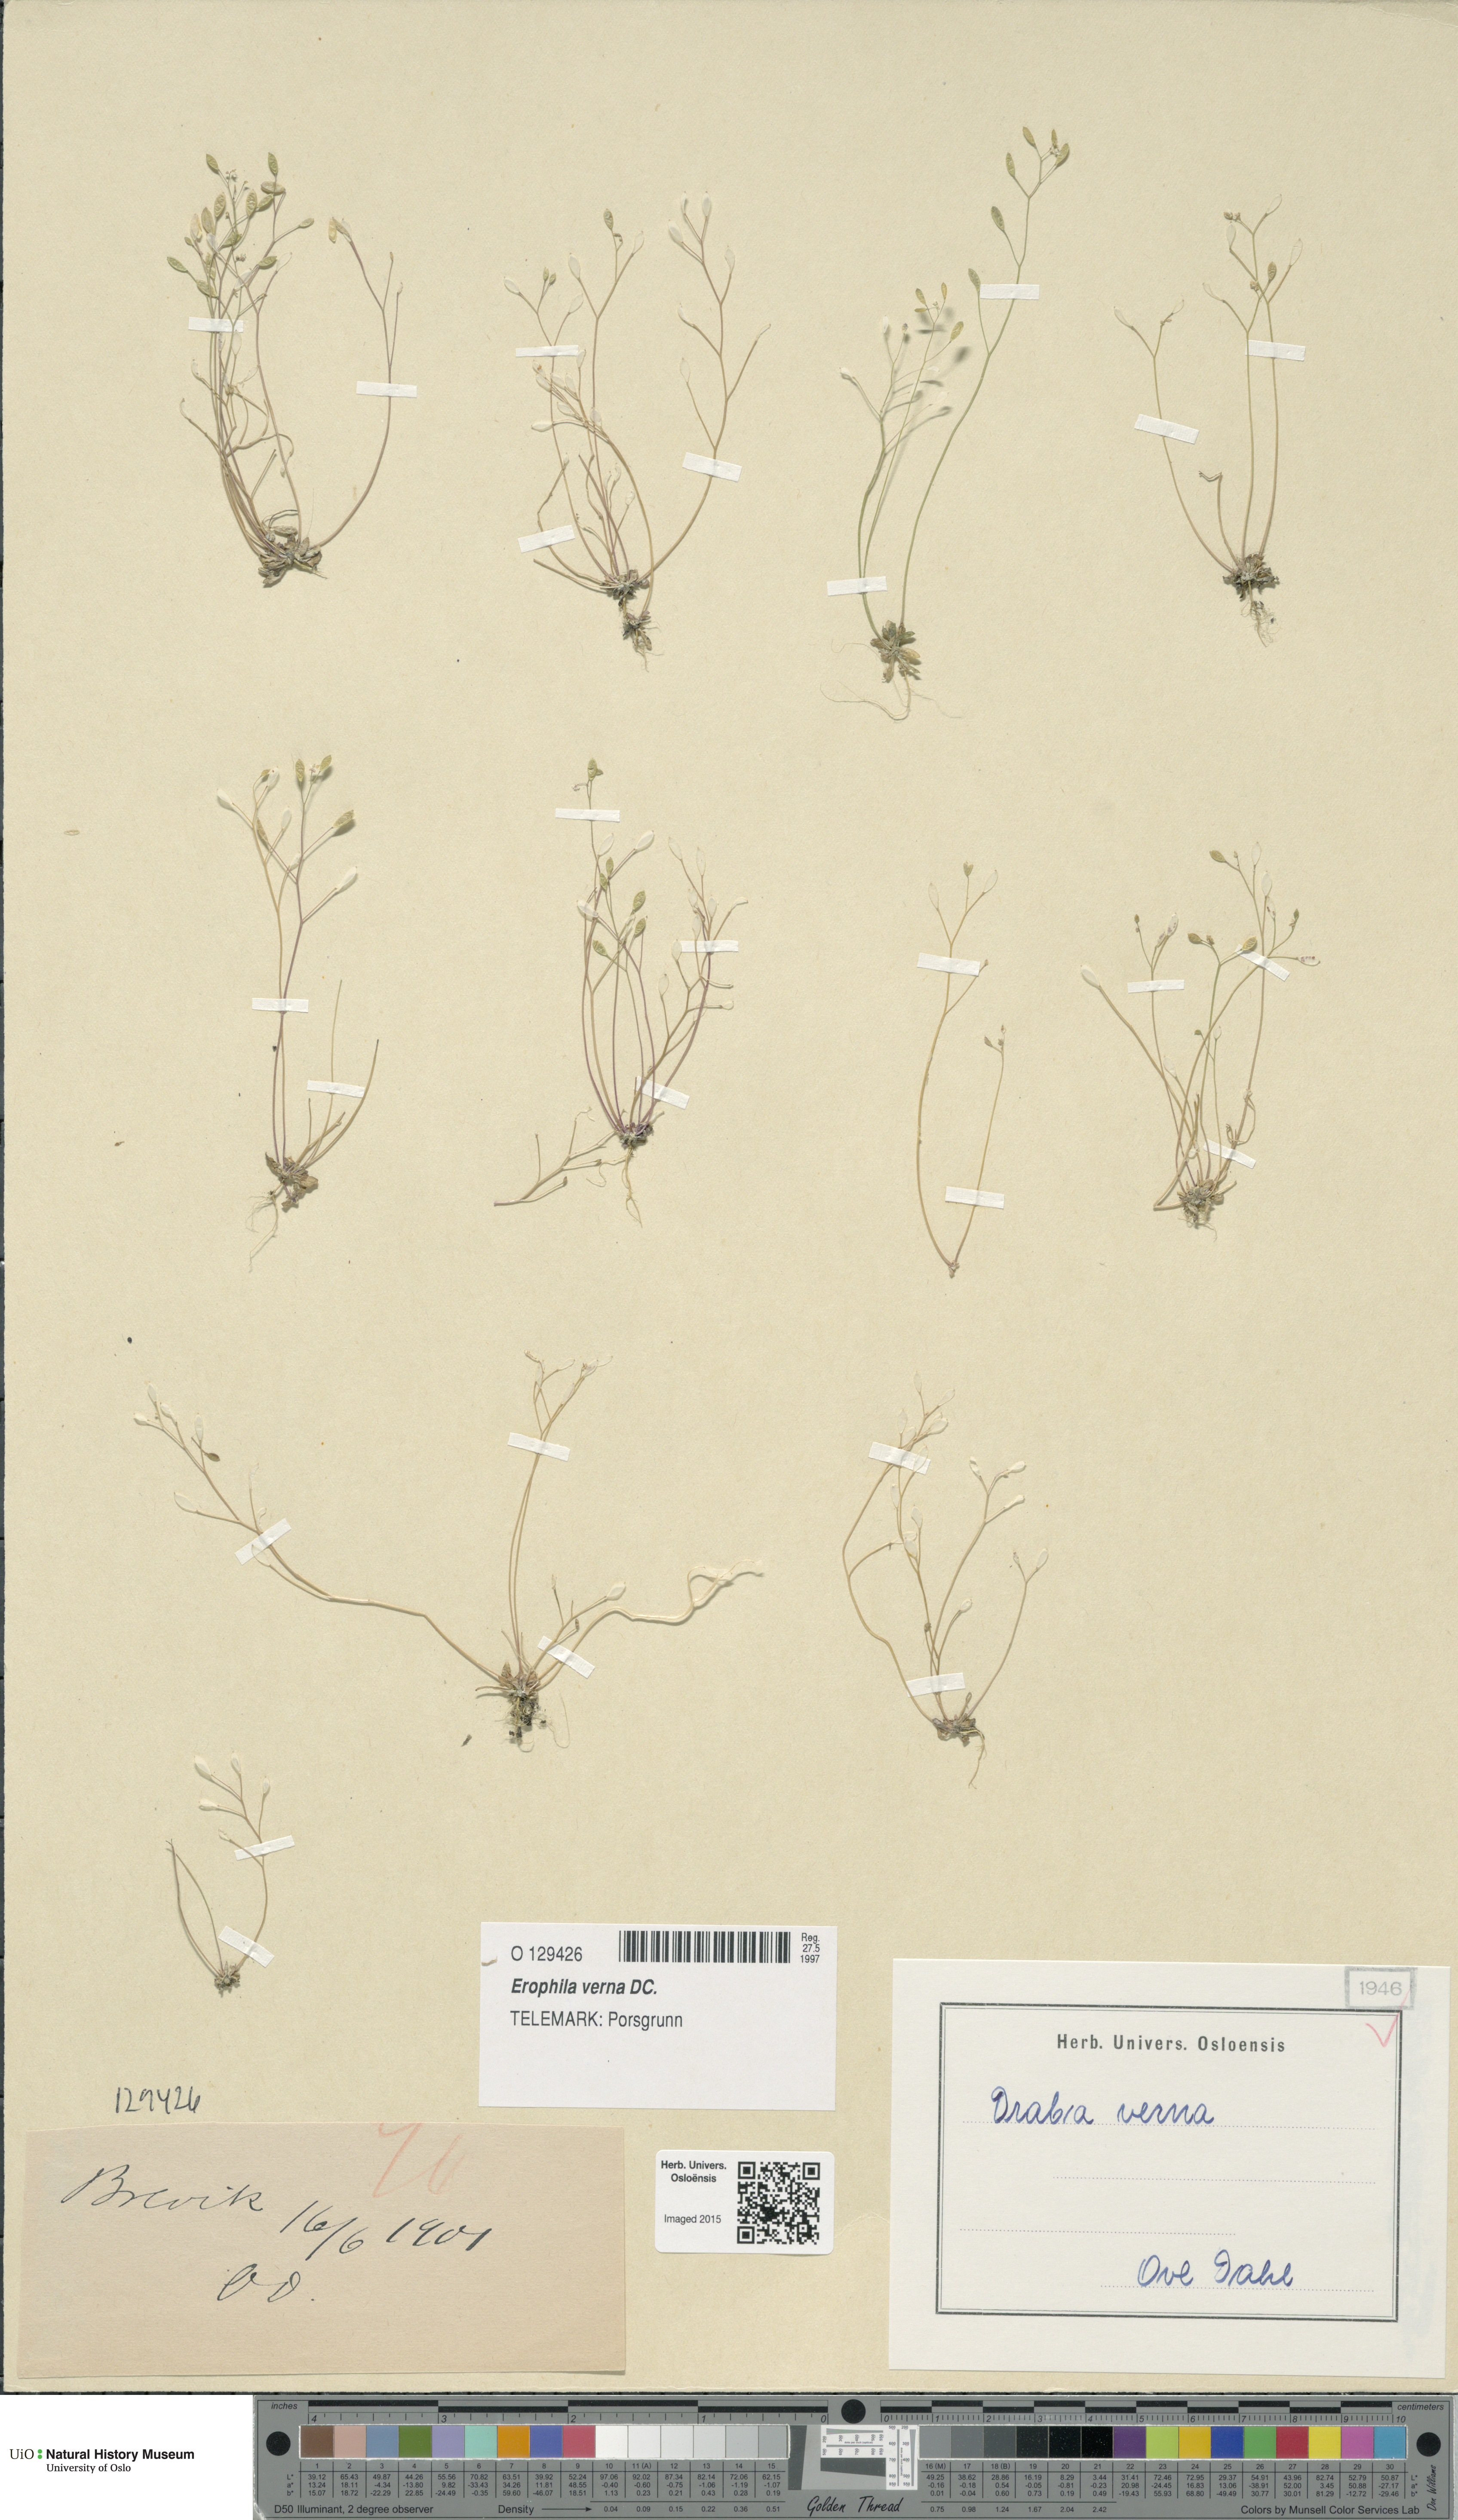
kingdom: Plantae
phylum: Tracheophyta
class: Magnoliopsida
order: Brassicales
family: Brassicaceae
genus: Draba
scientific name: Draba verna
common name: Spring draba
